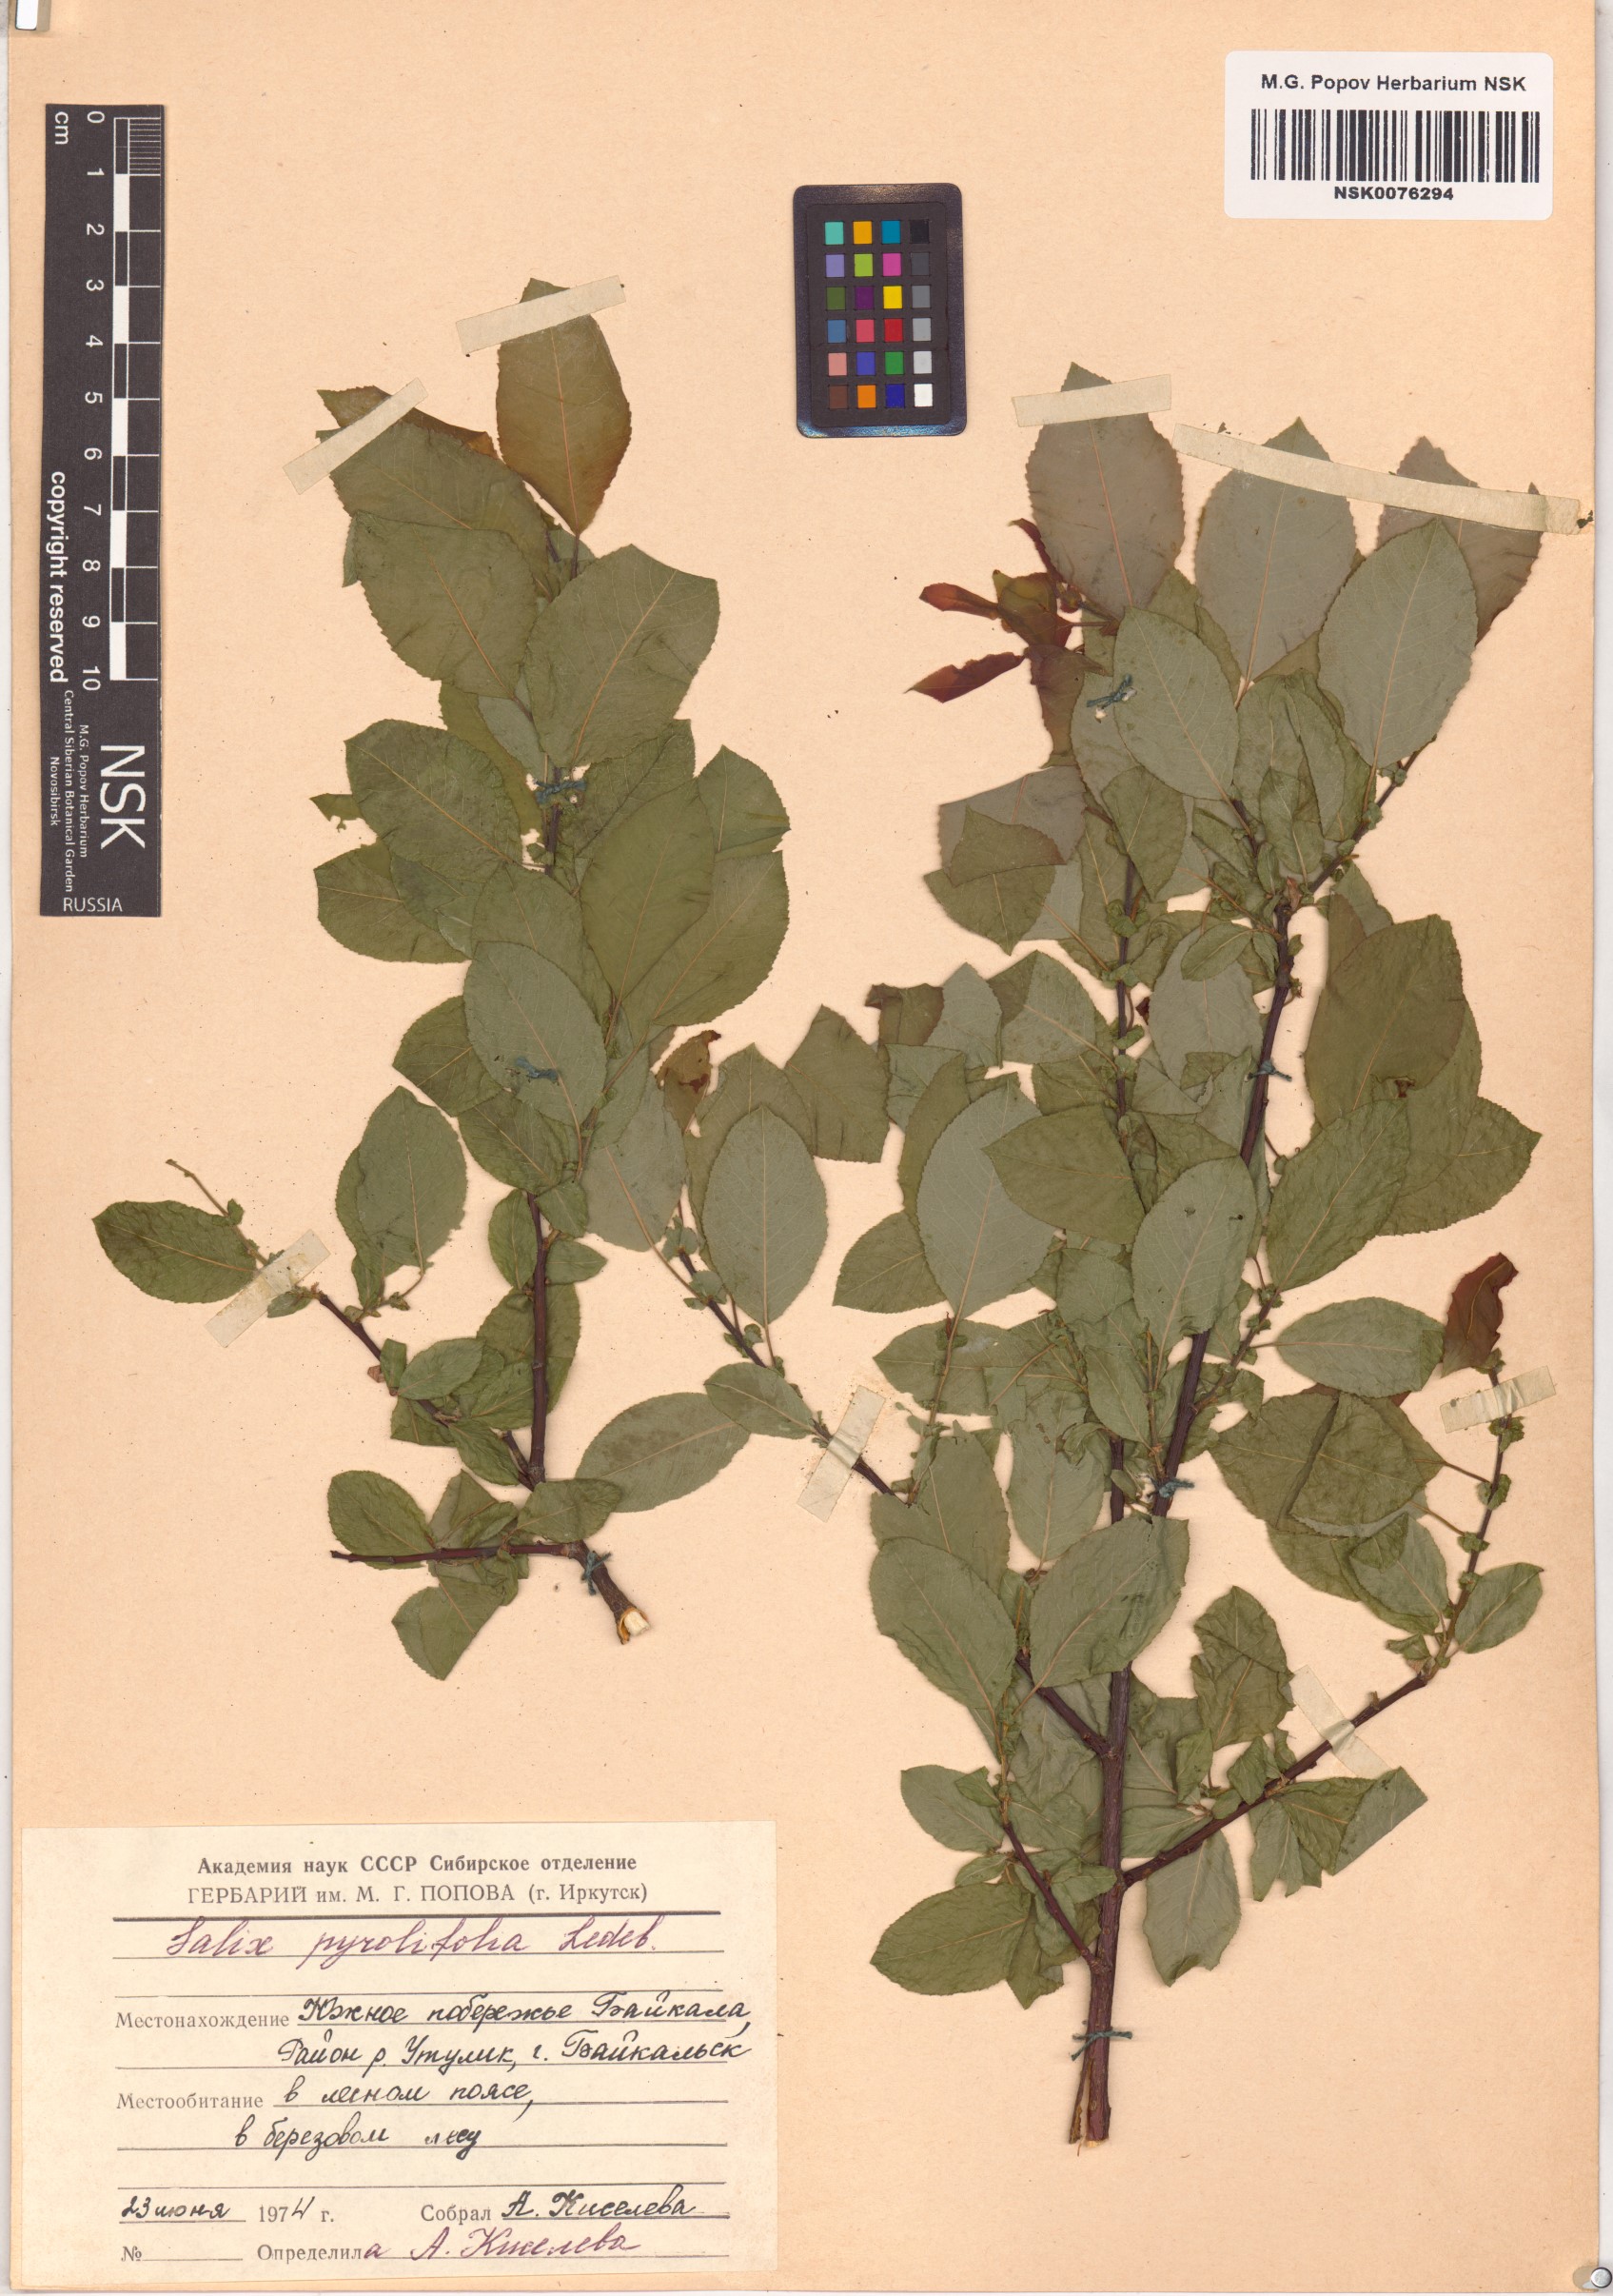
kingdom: Plantae
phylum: Tracheophyta
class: Magnoliopsida
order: Malpighiales
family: Salicaceae
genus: Salix
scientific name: Salix pyrolifolia
